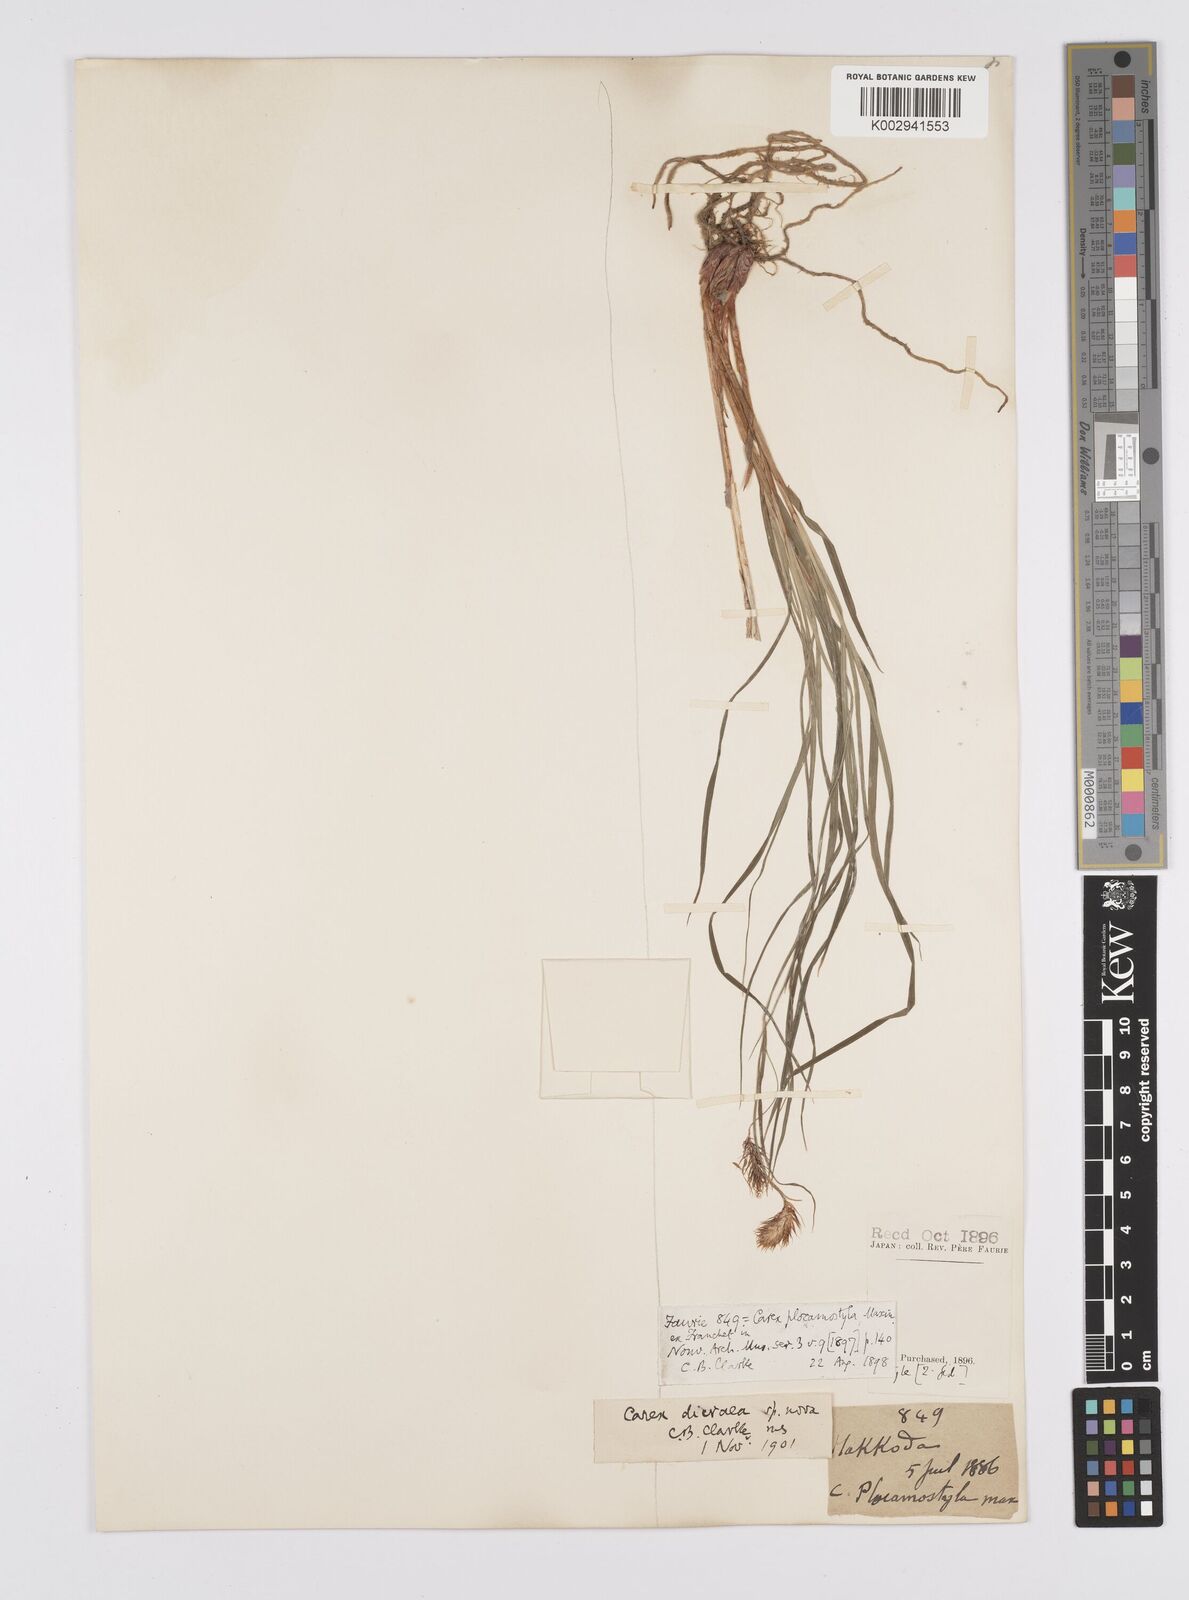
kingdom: Plantae
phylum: Tracheophyta
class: Liliopsida
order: Poales
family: Cyperaceae
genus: Carex
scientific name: Carex doenitzii
